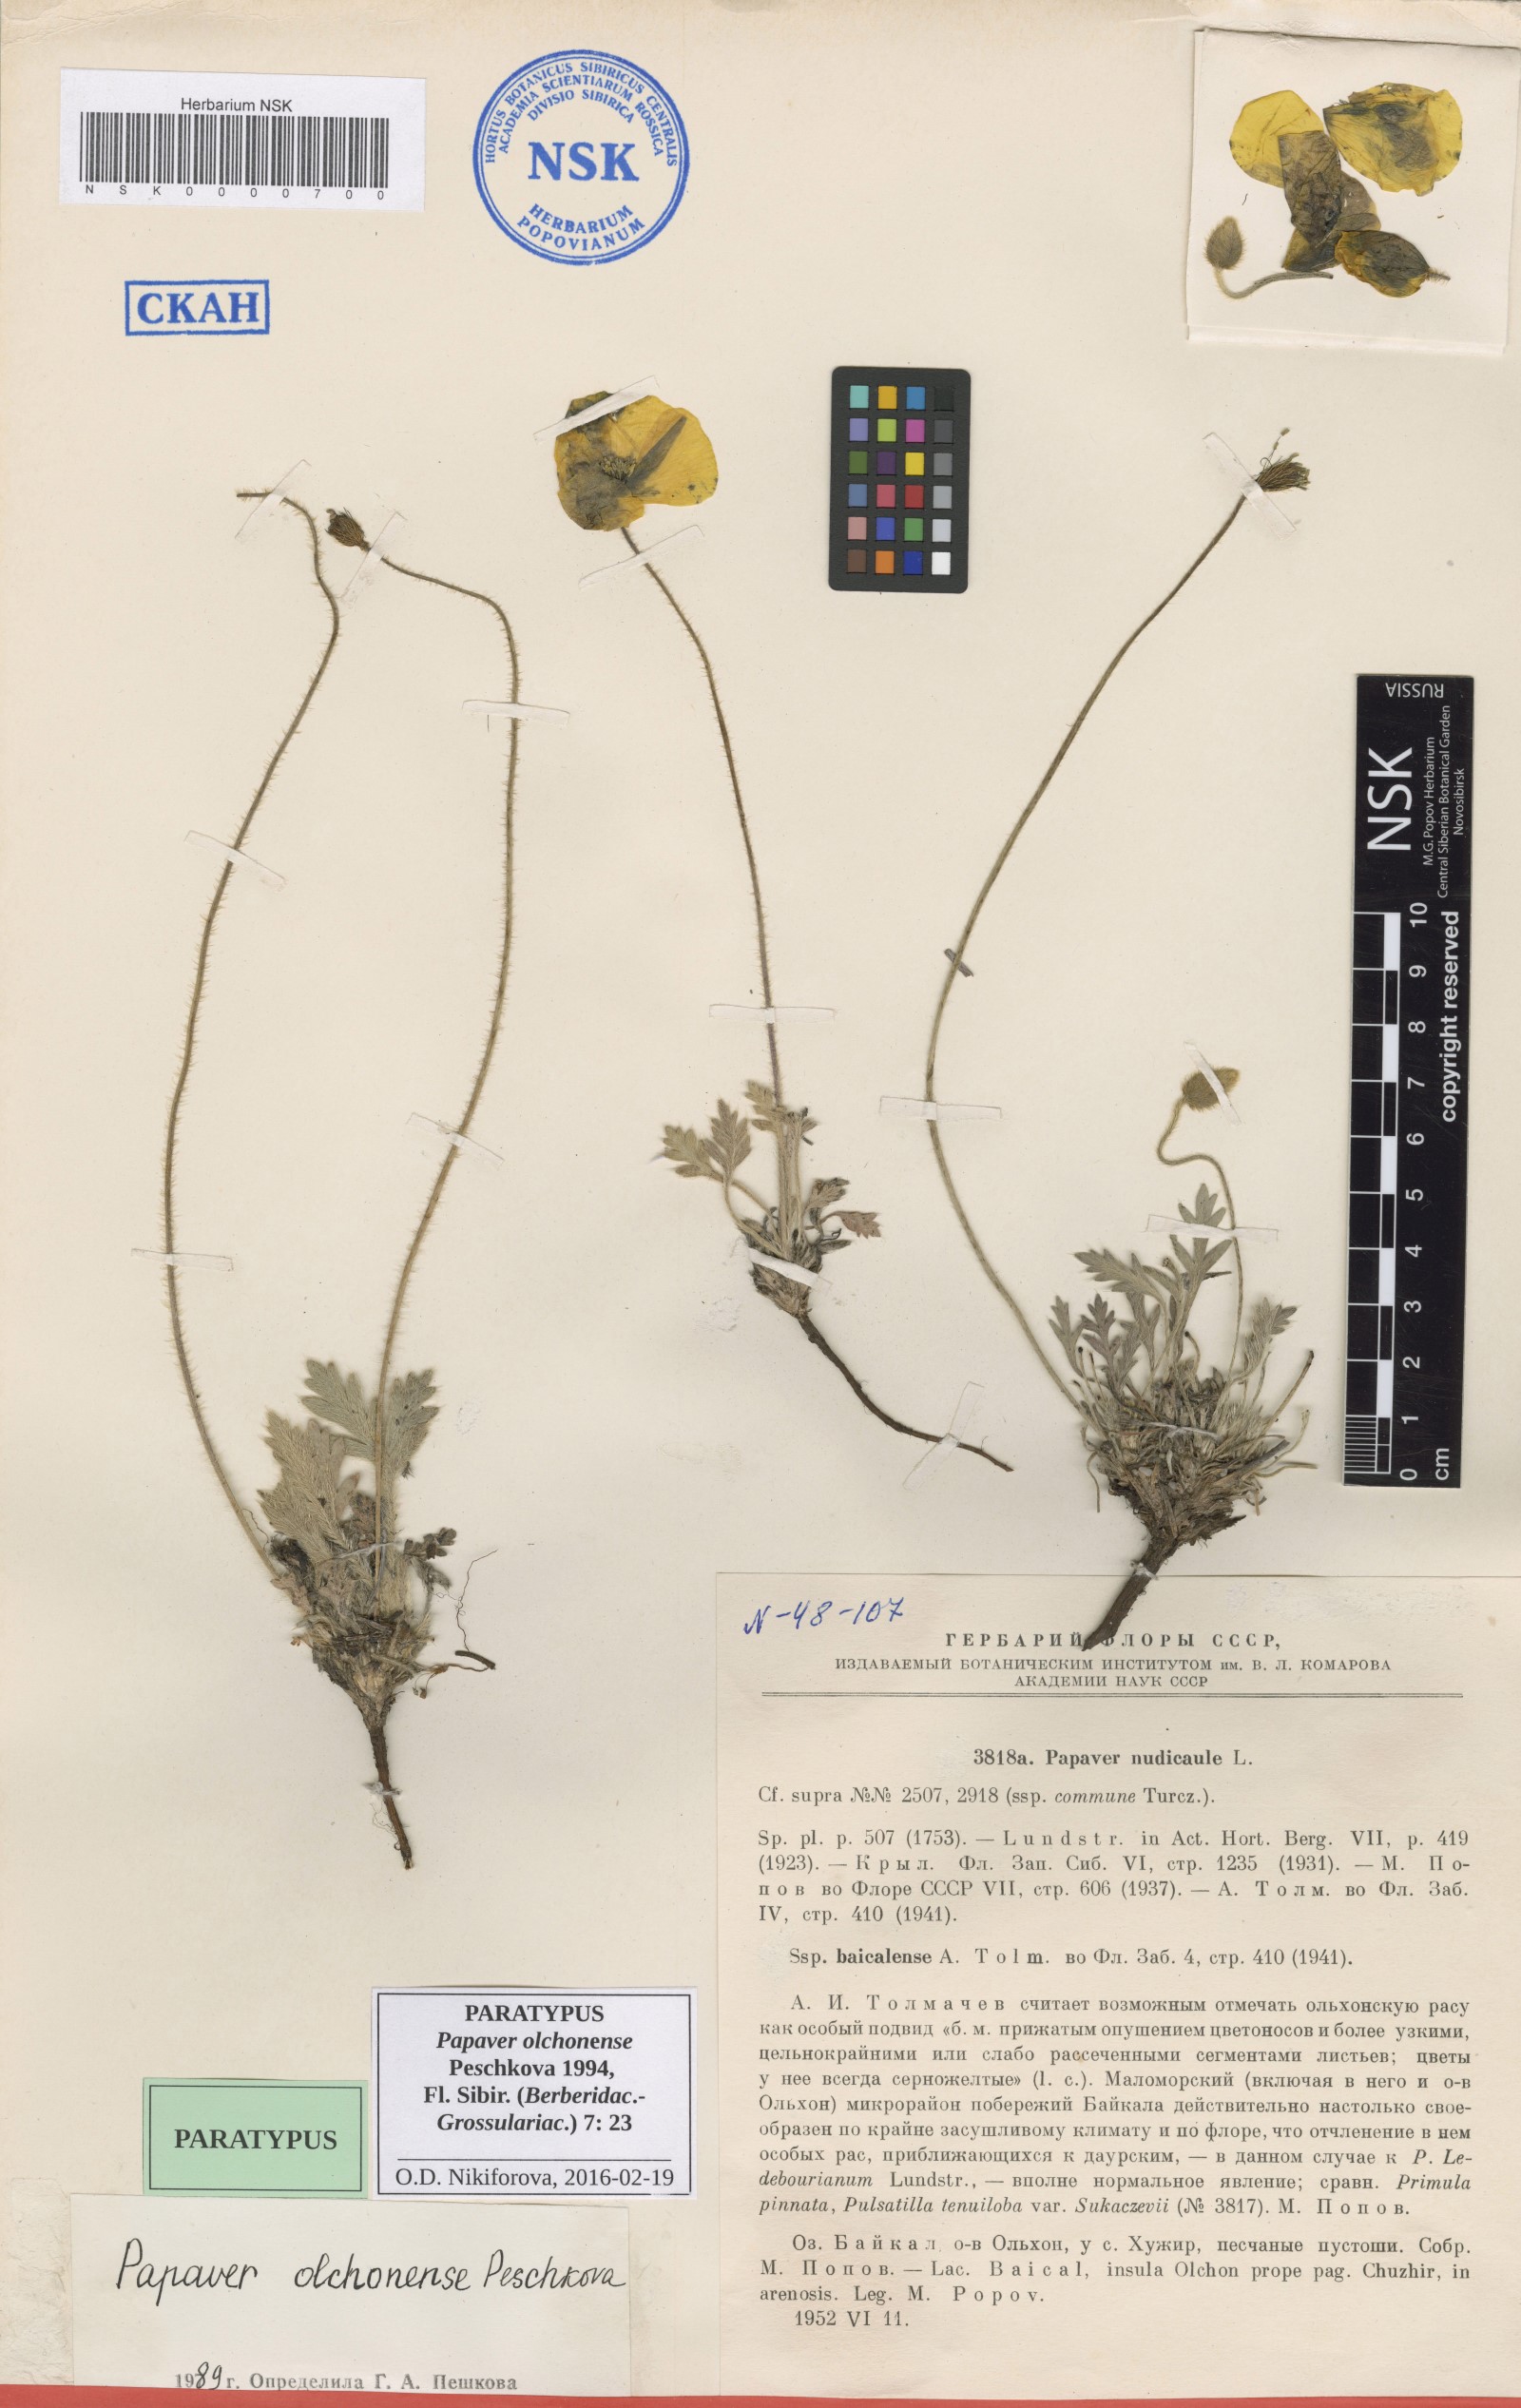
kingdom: Plantae
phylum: Tracheophyta
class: Magnoliopsida
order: Ranunculales
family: Papaveraceae
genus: Papaver
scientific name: Papaver olchonense
